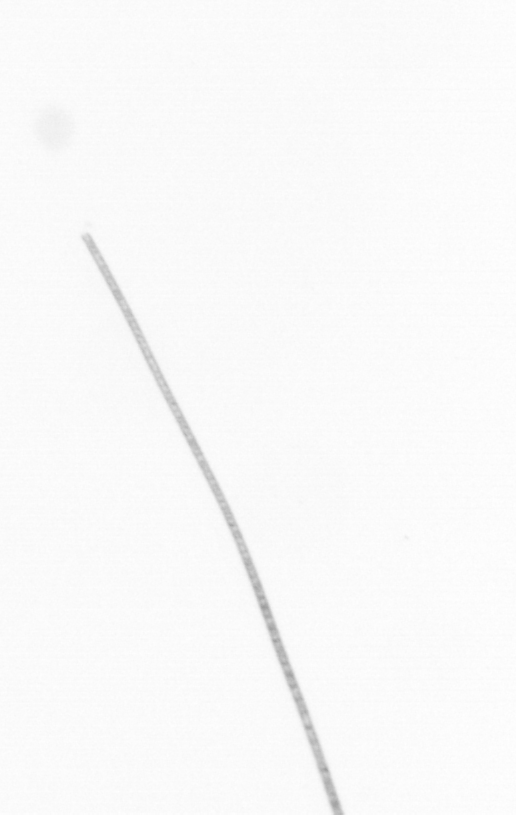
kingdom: Chromista
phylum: Ochrophyta
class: Bacillariophyceae
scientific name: Bacillariophyceae
